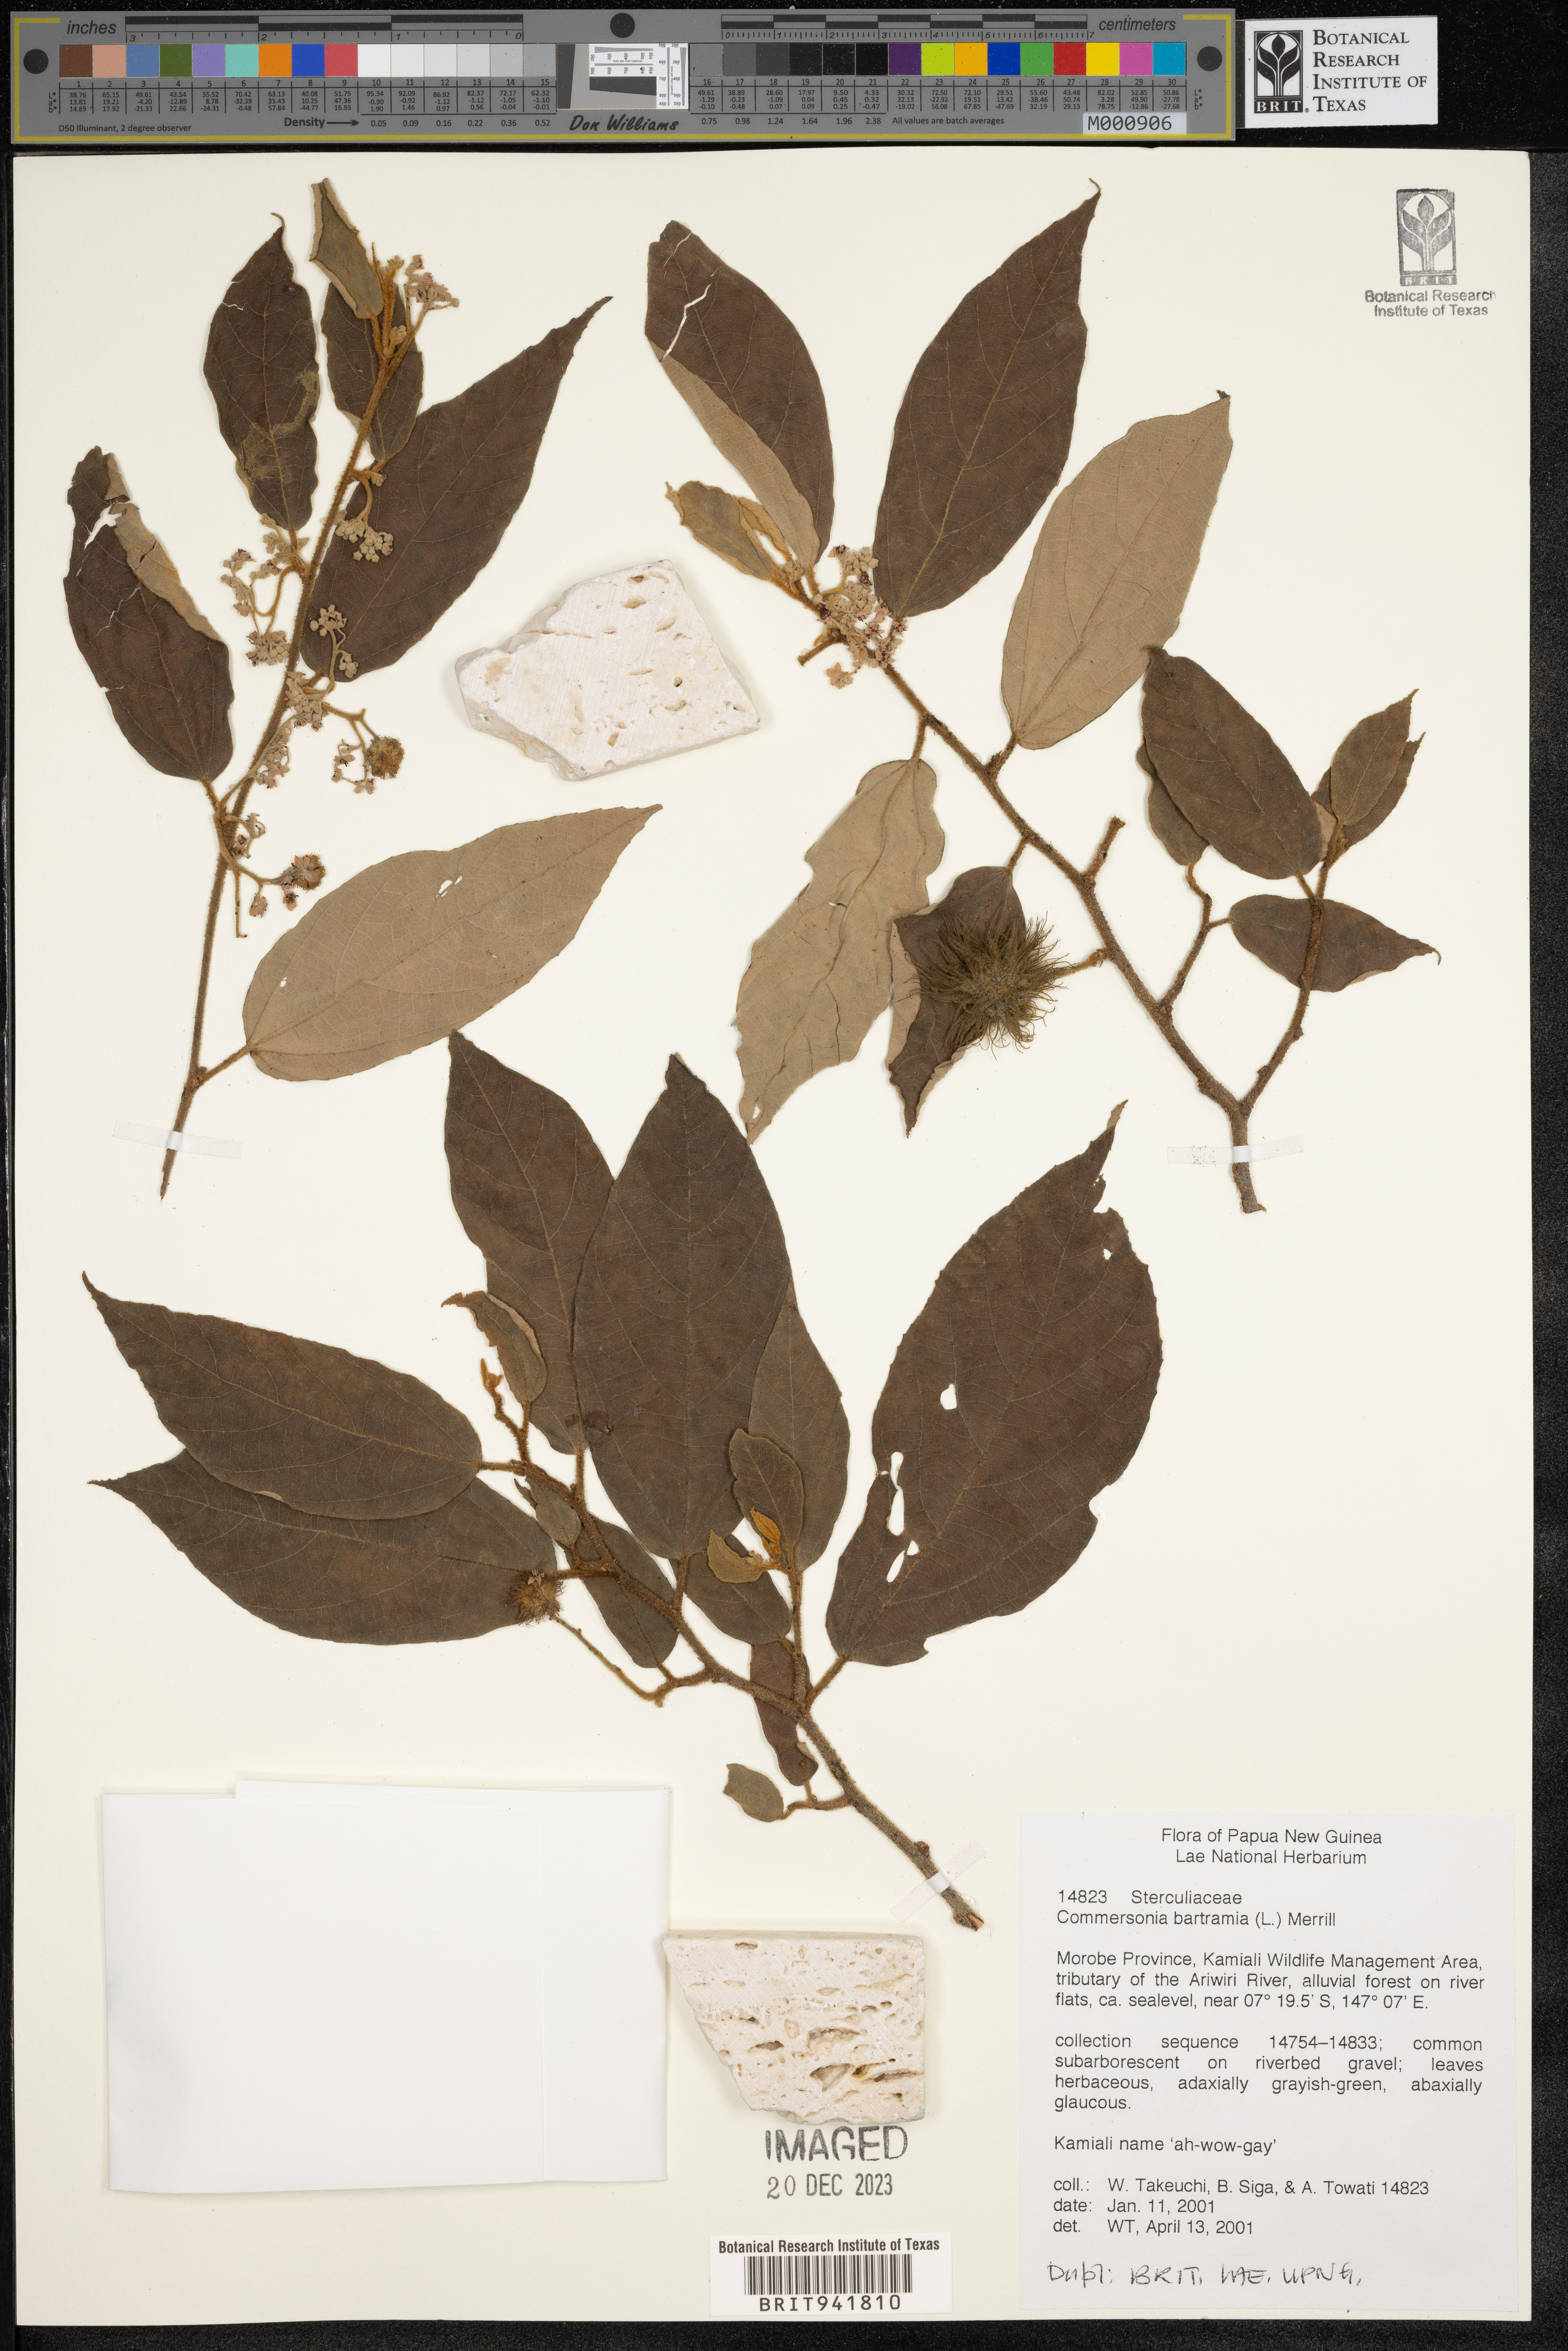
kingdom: Plantae
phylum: Tracheophyta
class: Magnoliopsida
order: Malvales
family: Malvaceae
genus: Commersonia
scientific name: Commersonia bartramia
